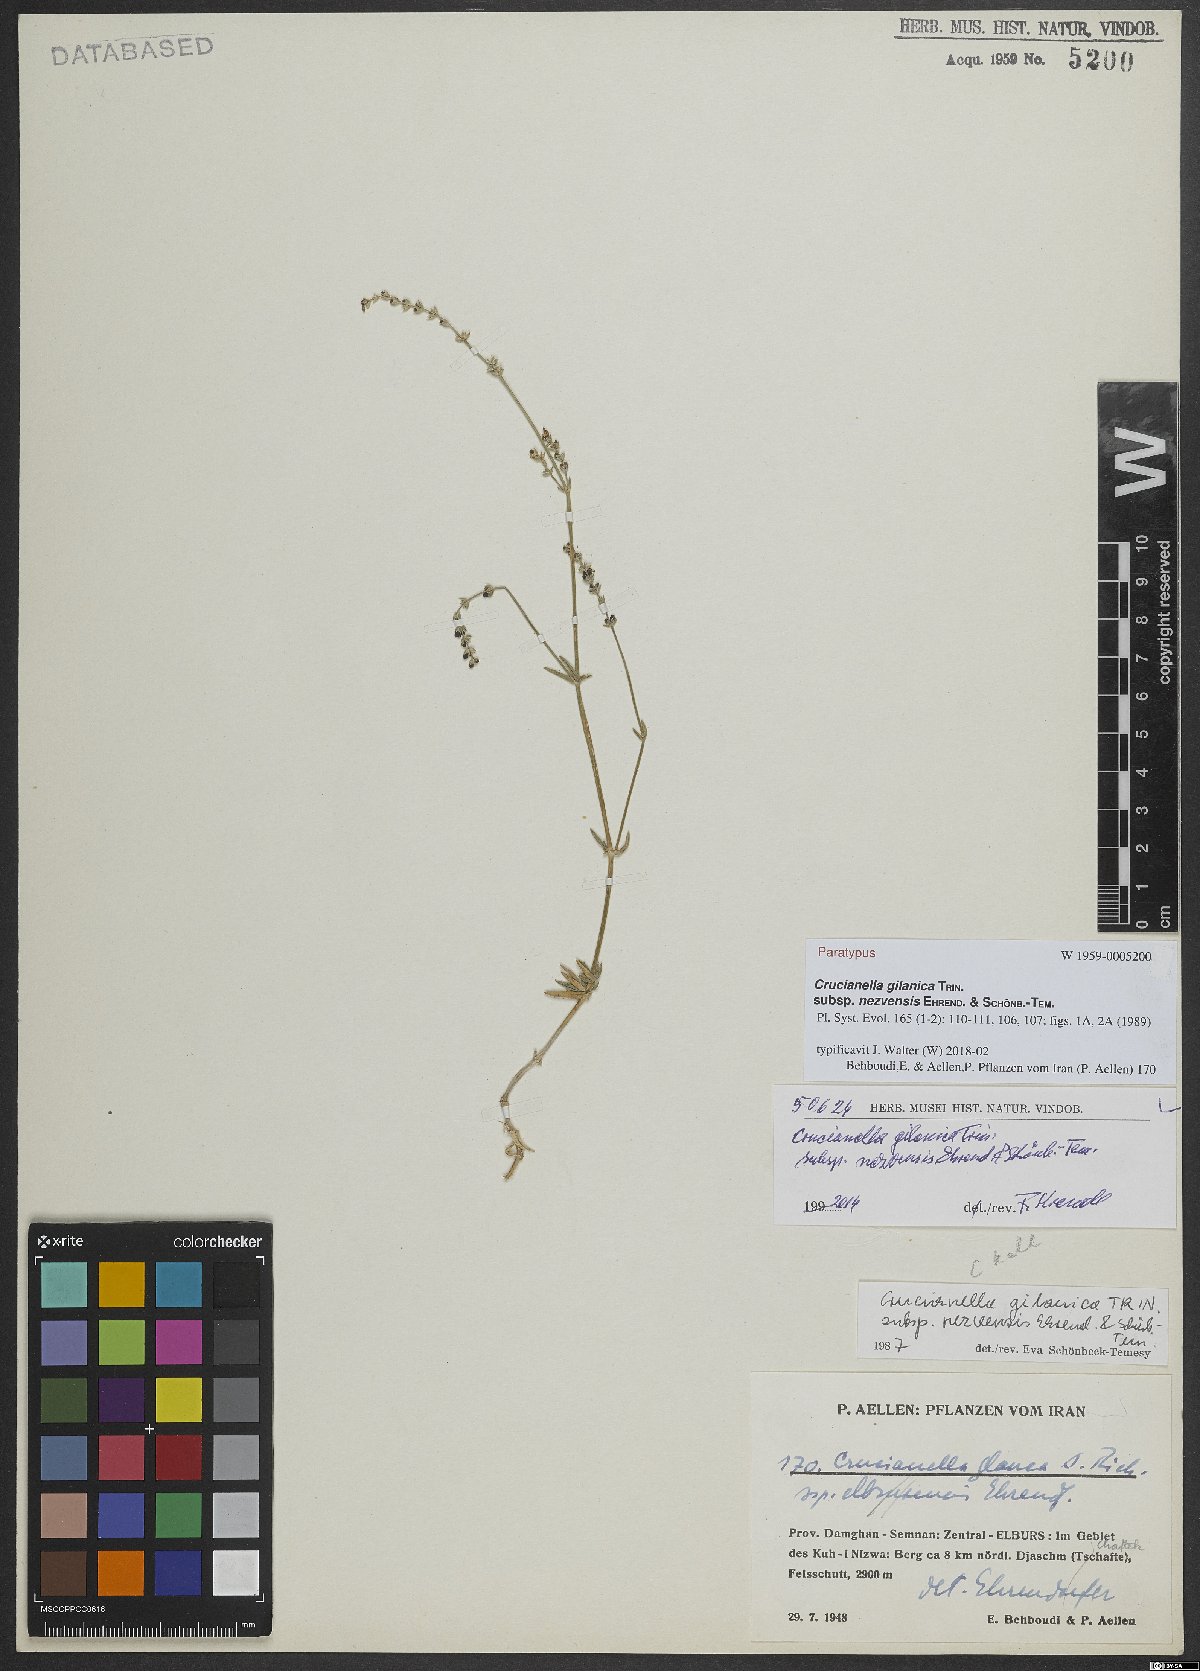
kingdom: Plantae
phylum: Tracheophyta
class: Magnoliopsida
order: Gentianales
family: Rubiaceae
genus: Crucianella
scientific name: Crucianella gilanica
